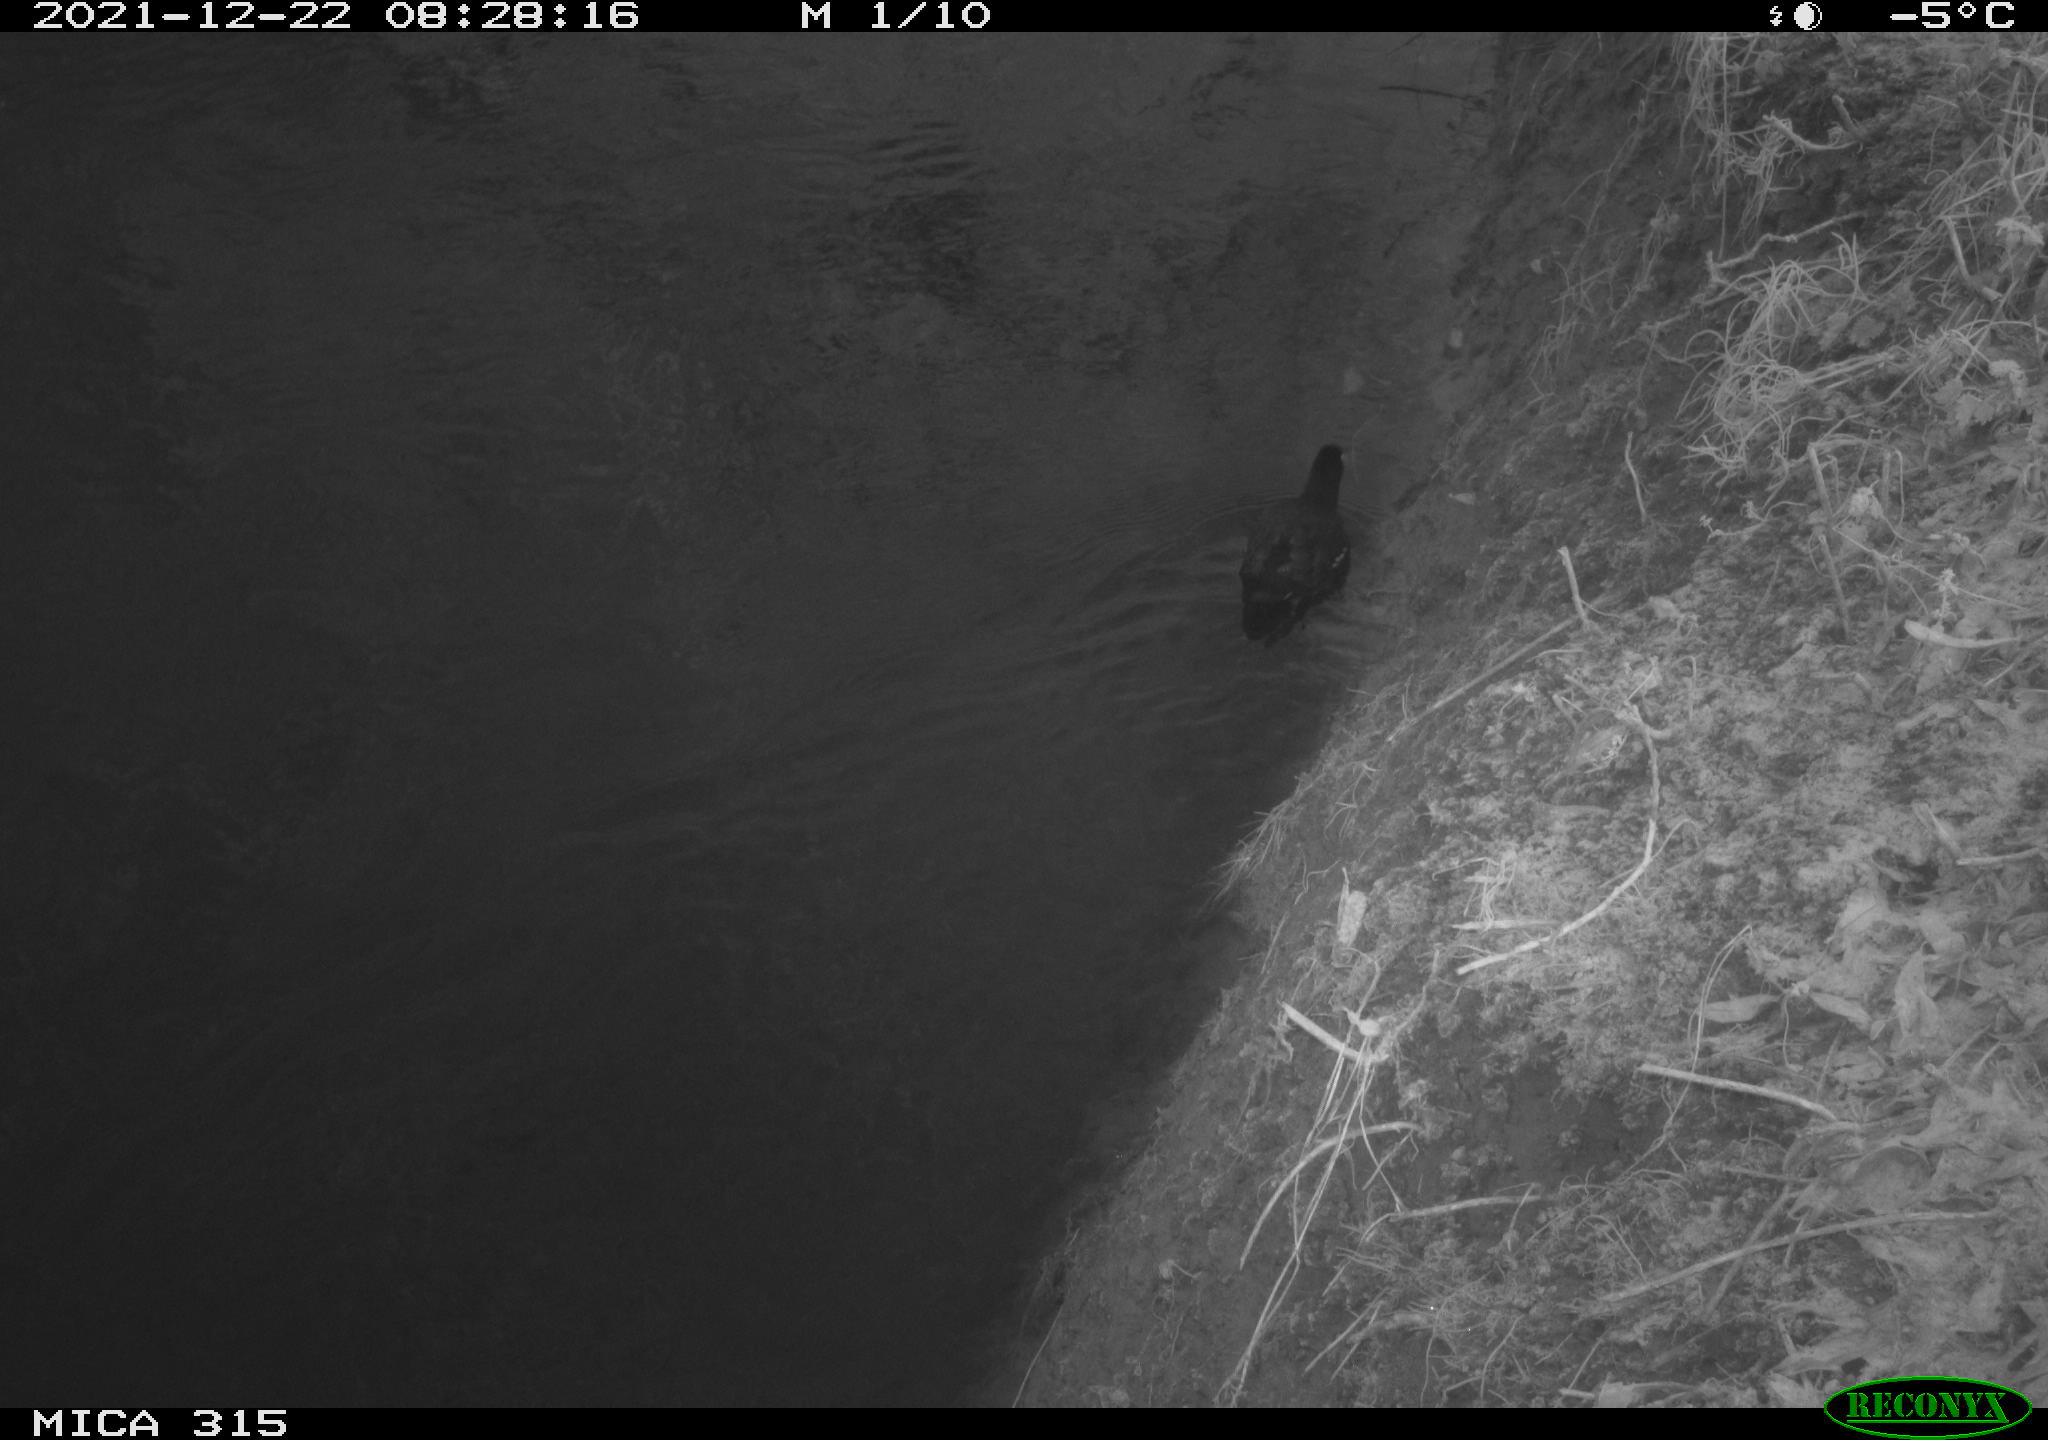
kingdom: Animalia
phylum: Chordata
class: Aves
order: Gruiformes
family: Rallidae
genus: Gallinula
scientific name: Gallinula chloropus
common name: Common moorhen
